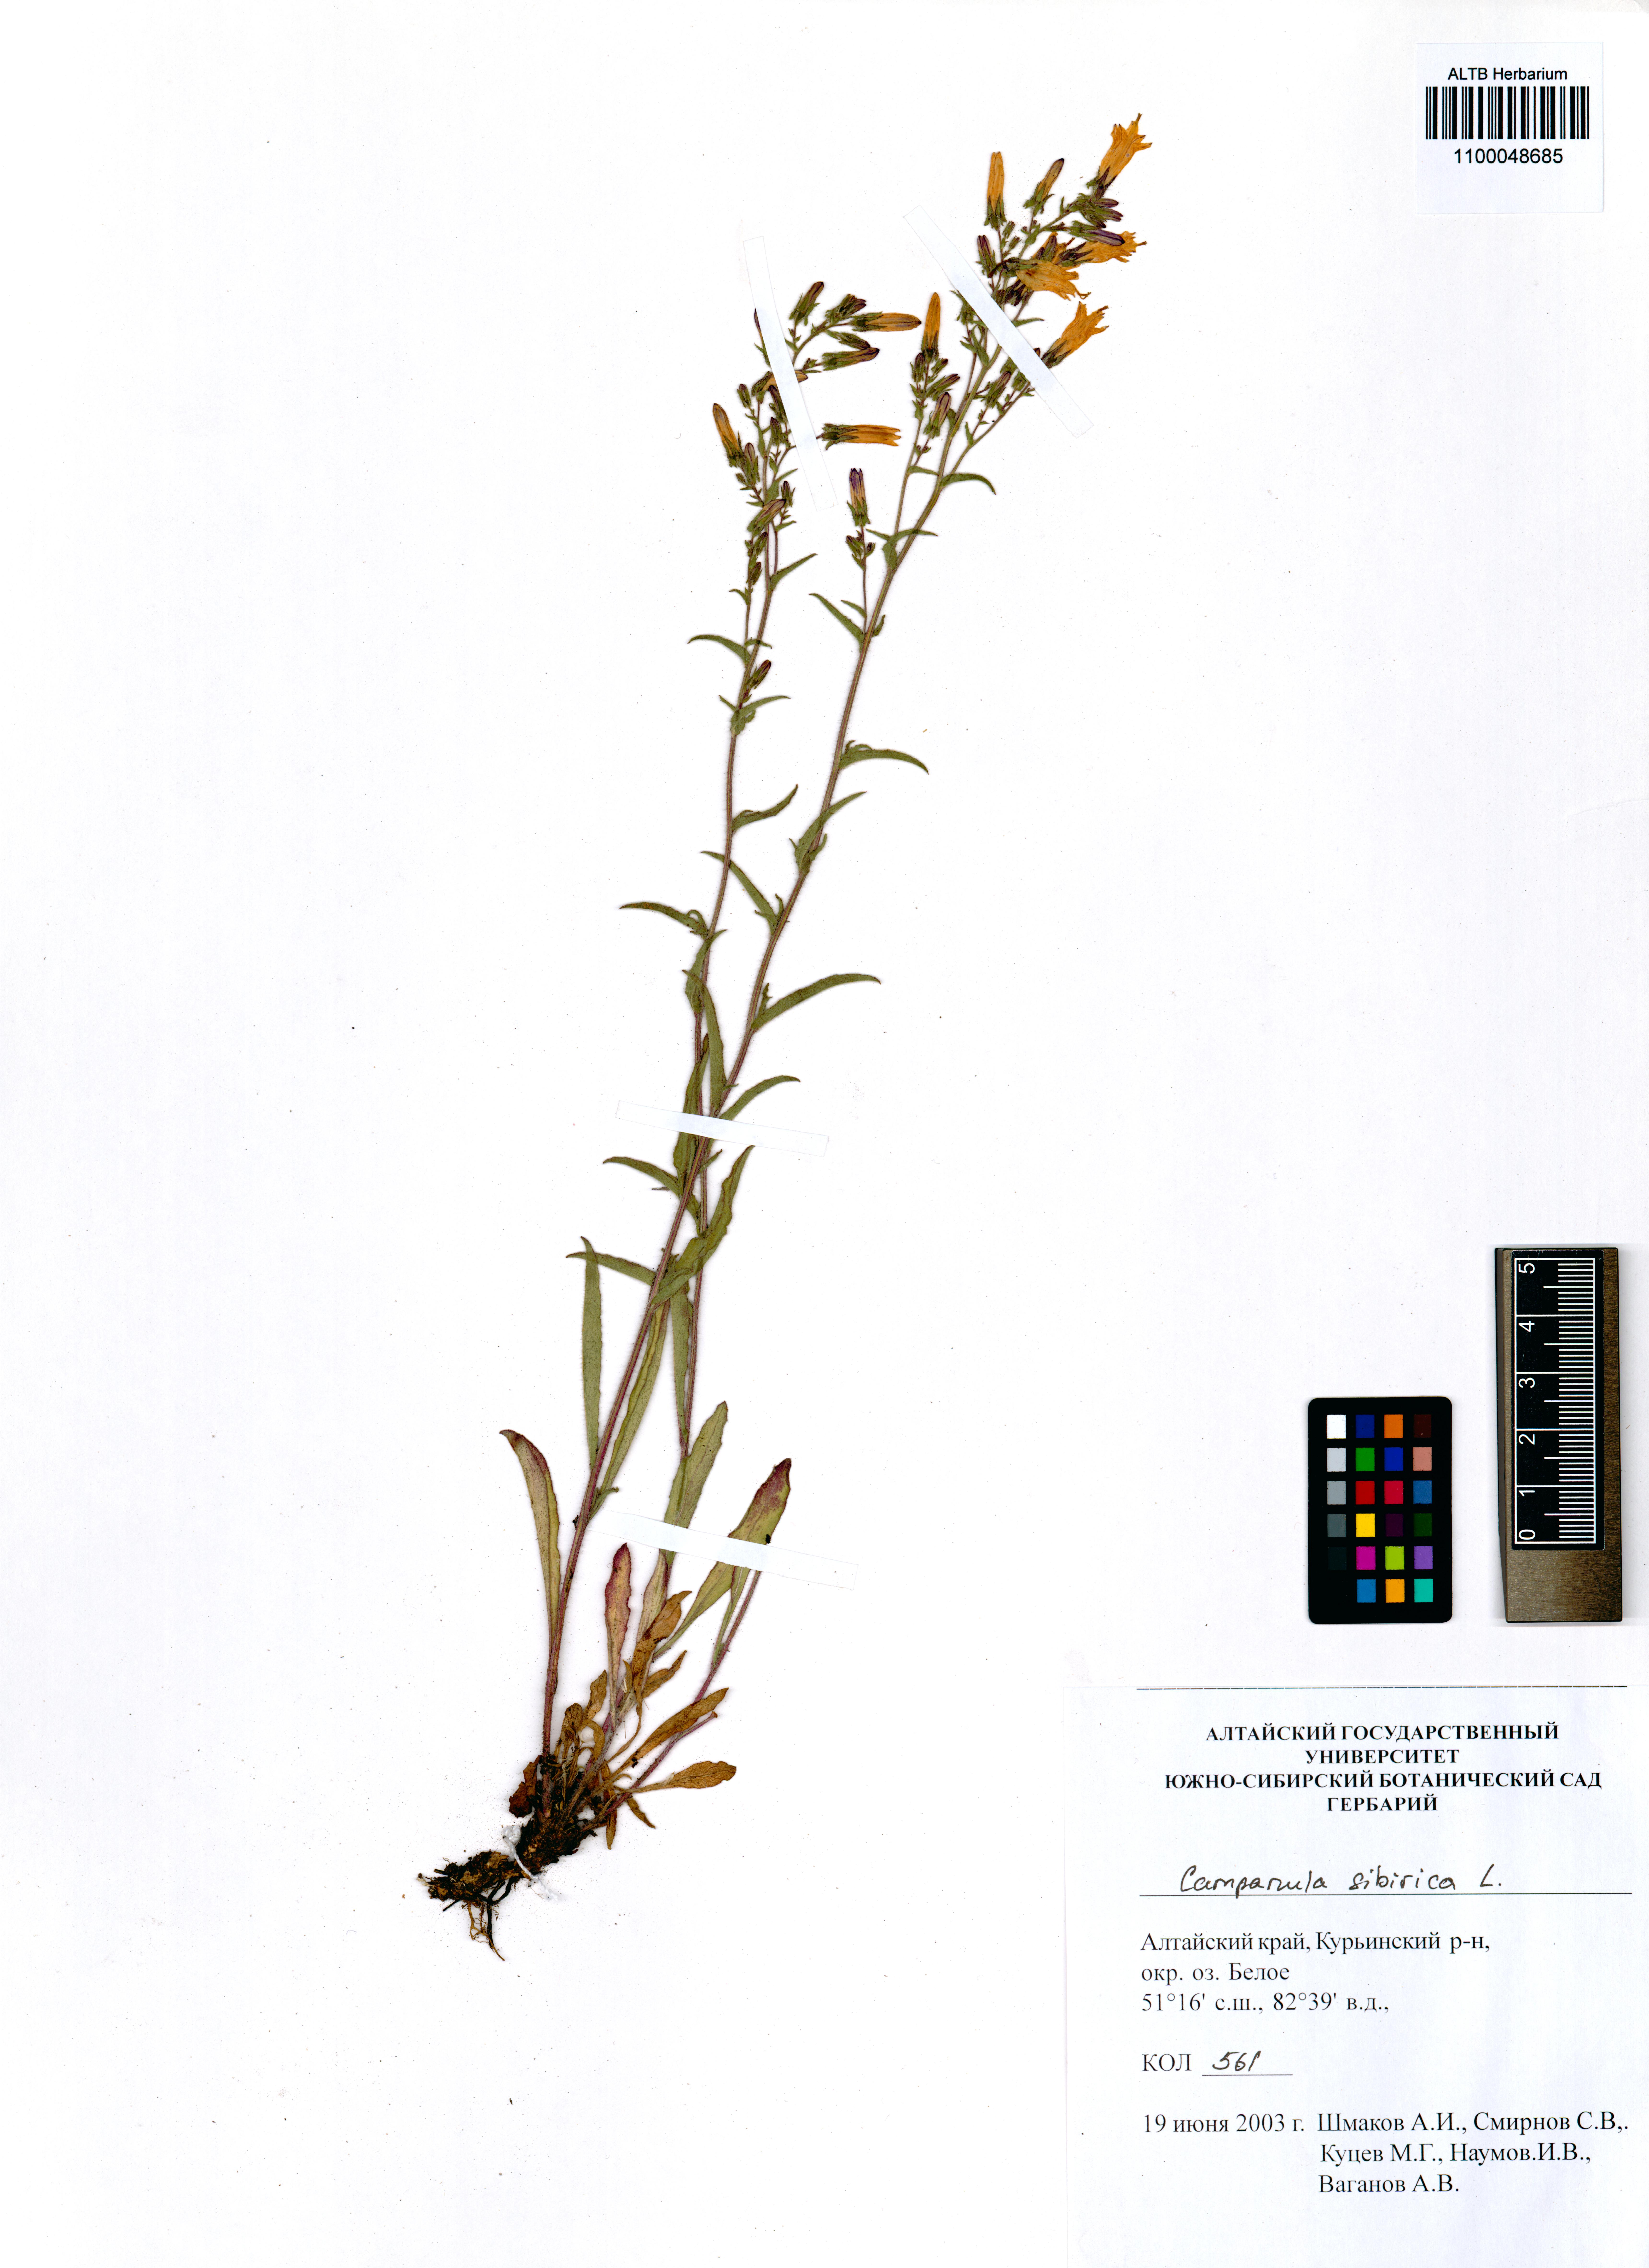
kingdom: Plantae
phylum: Tracheophyta
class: Magnoliopsida
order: Asterales
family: Campanulaceae
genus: Campanula
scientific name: Campanula sibirica
